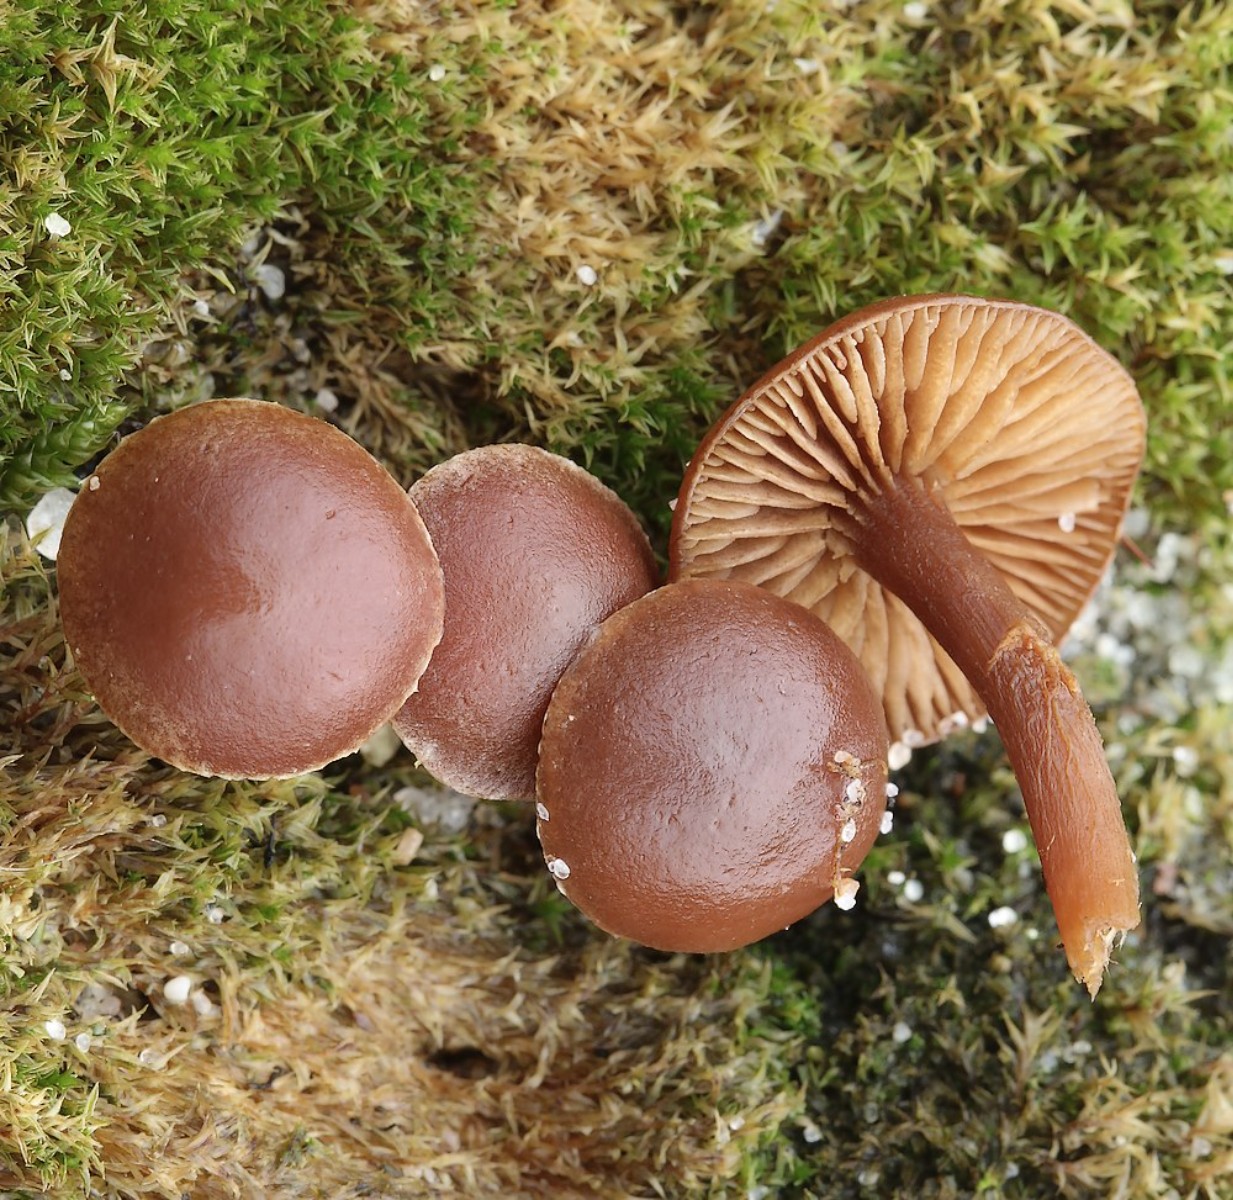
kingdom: Fungi
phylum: Basidiomycota
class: Agaricomycetes
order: Agaricales
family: Strophariaceae
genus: Deconica
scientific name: Deconica montana
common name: rødbrun stråhat
